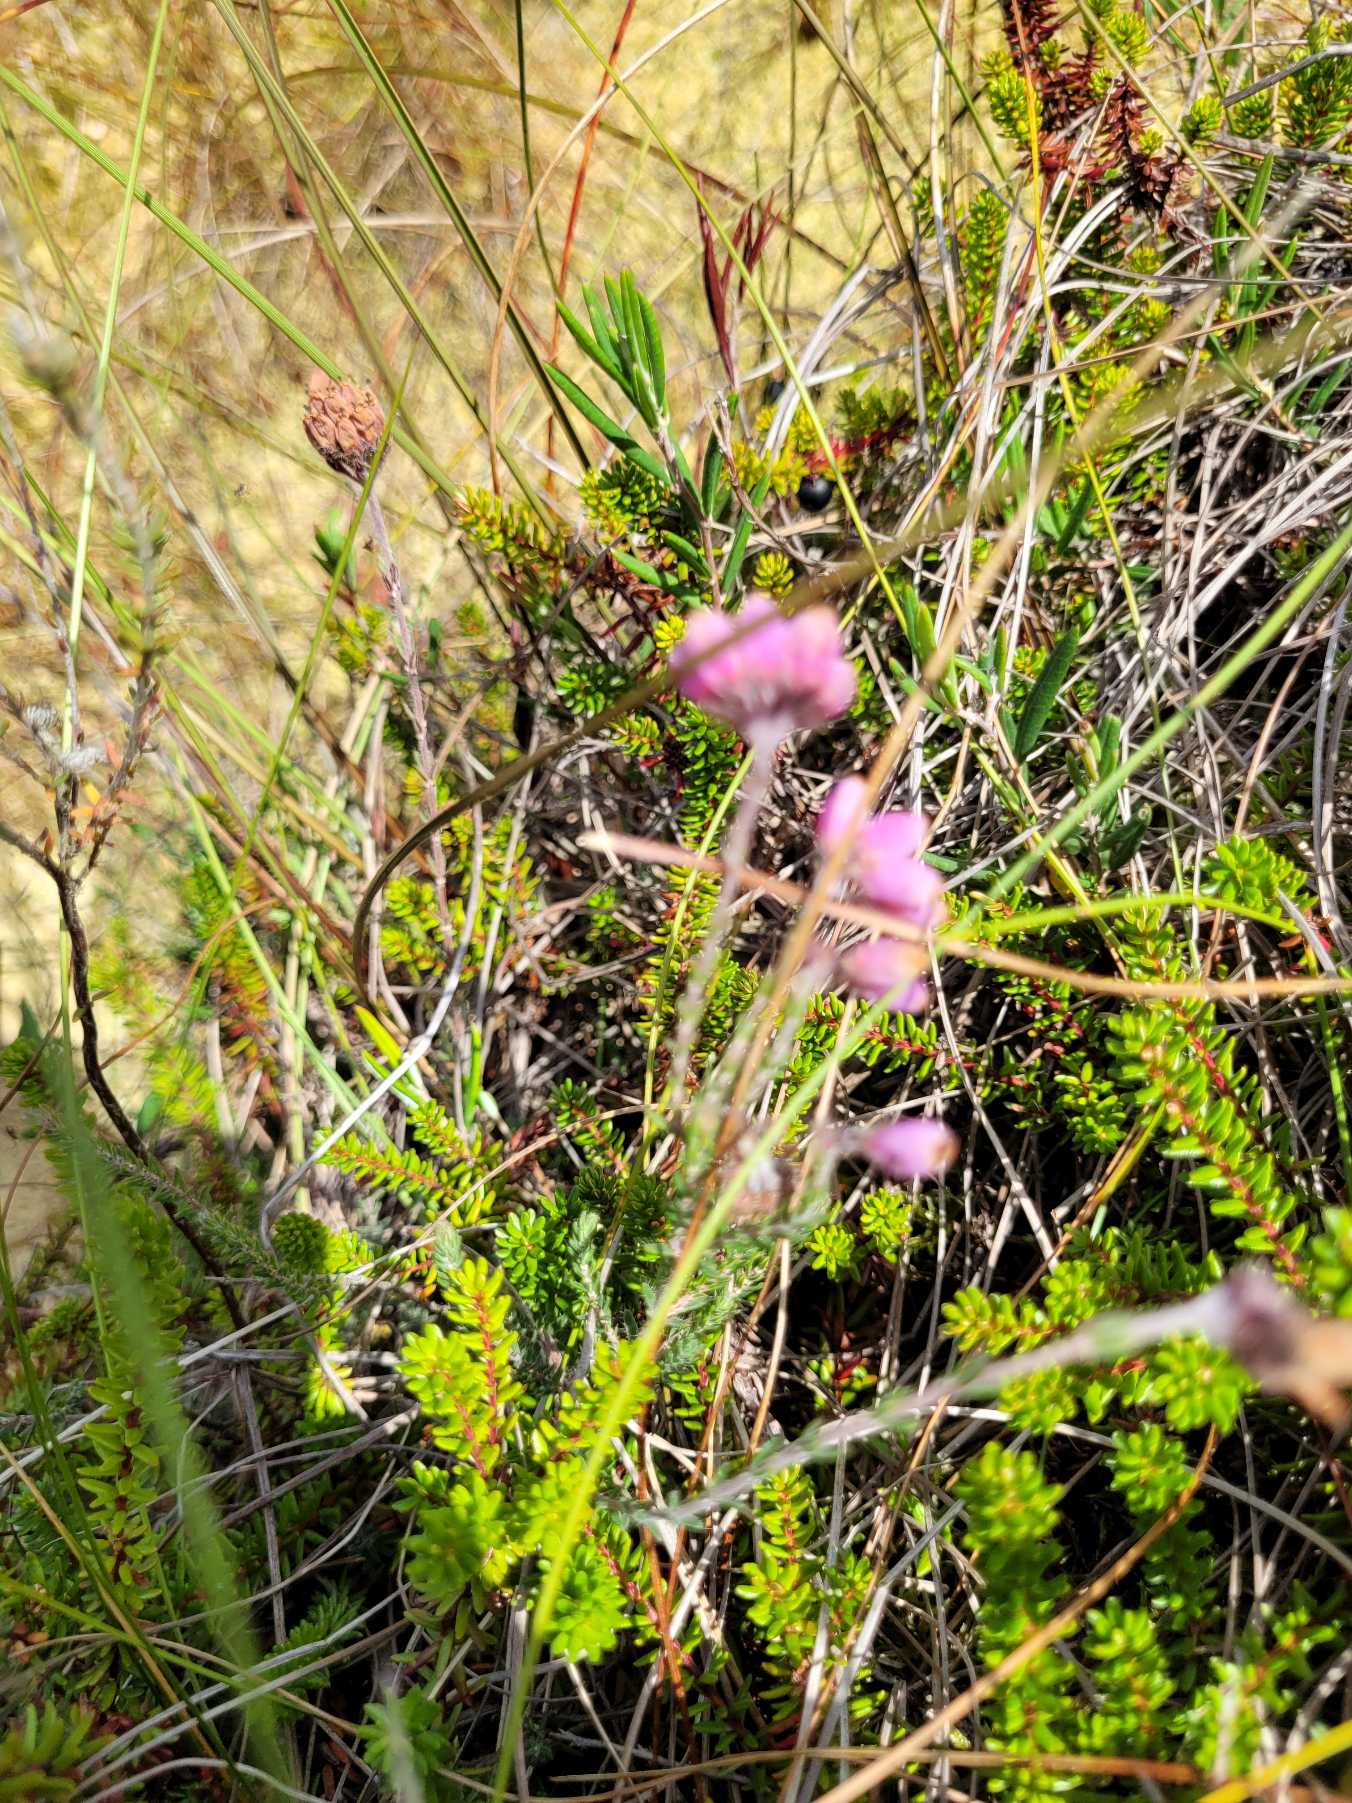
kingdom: Plantae
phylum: Tracheophyta
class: Magnoliopsida
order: Ericales
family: Ericaceae
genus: Erica
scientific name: Erica tetralix
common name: Klokkelyng
